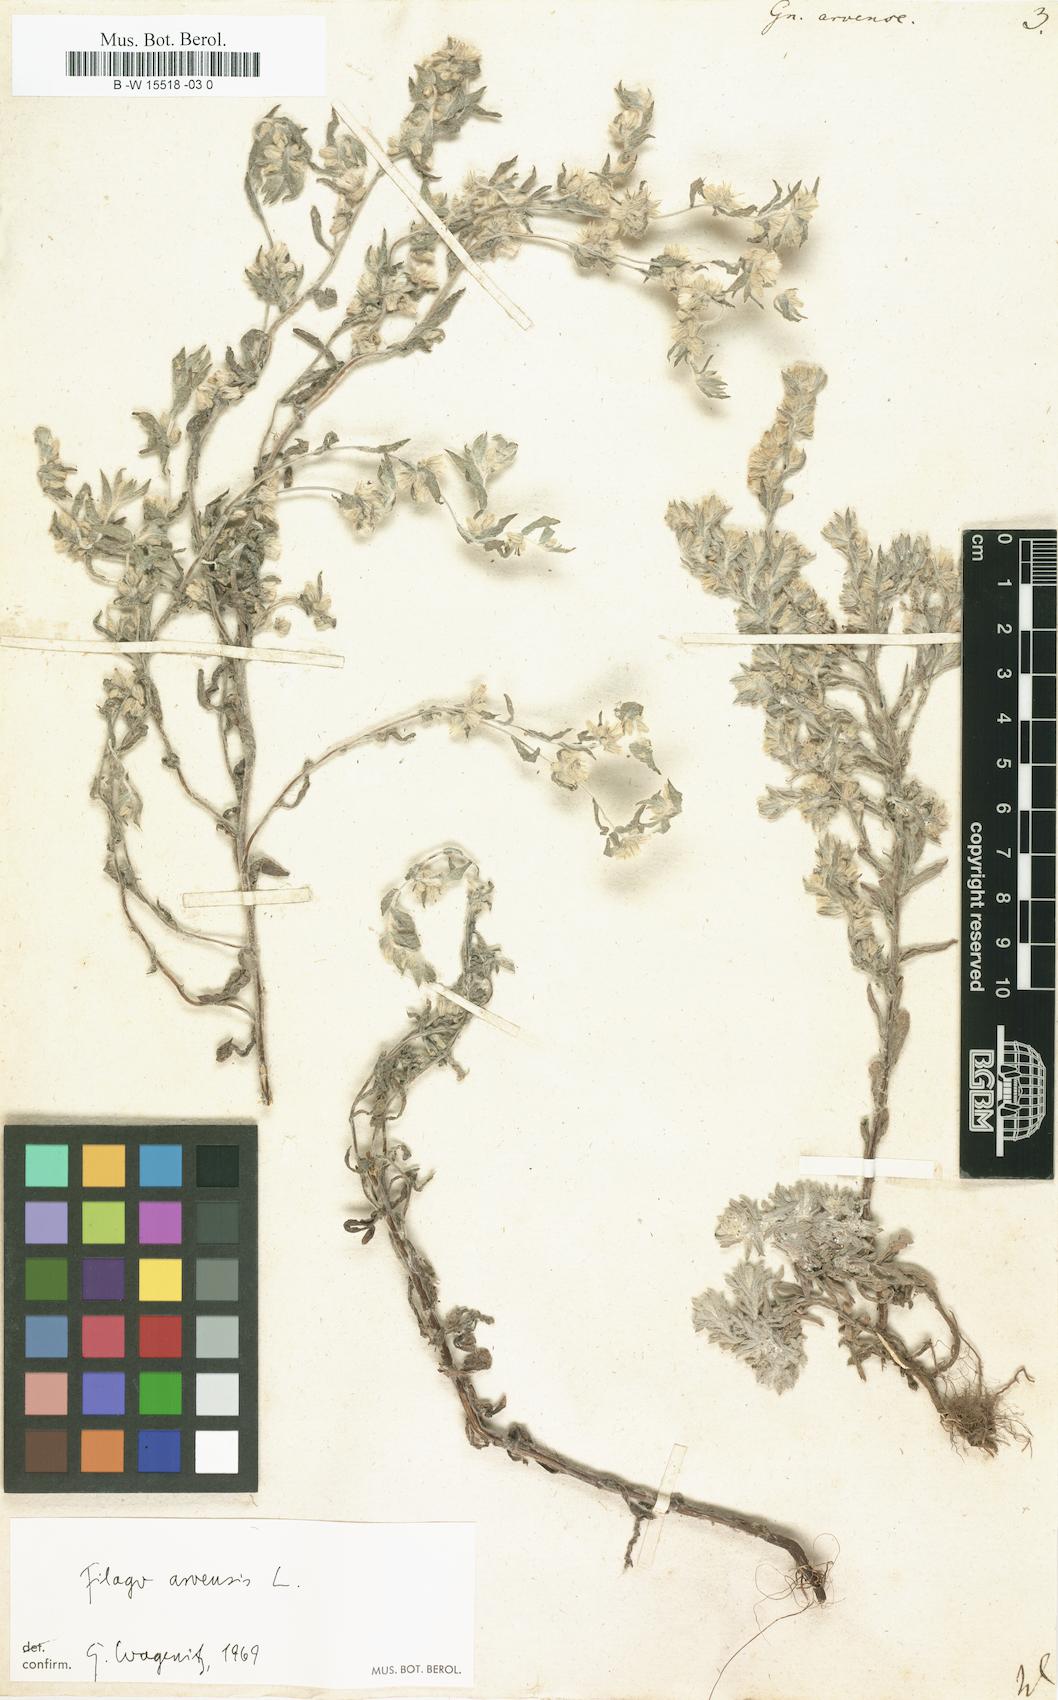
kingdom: Plantae
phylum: Tracheophyta
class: Magnoliopsida
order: Asterales
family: Asteraceae
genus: Filago
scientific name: Filago arvensis
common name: Field cudweed
